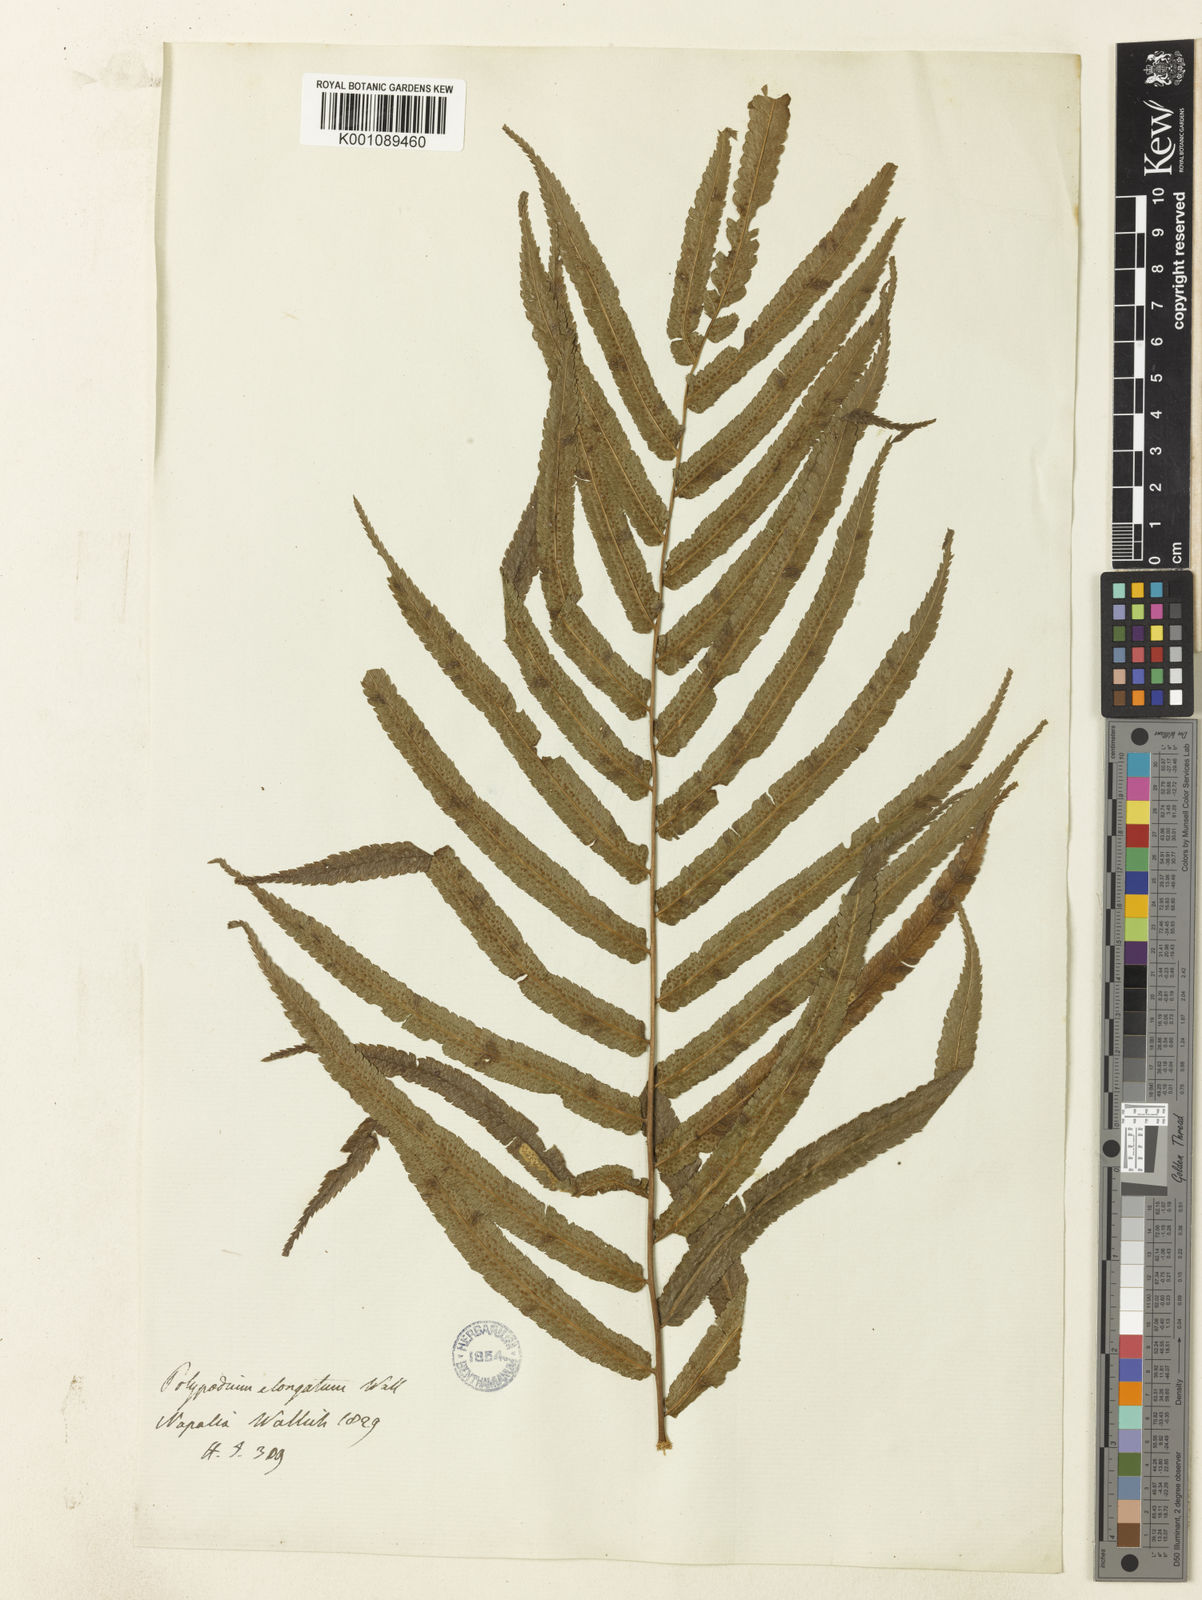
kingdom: Plantae
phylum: Tracheophyta
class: Polypodiopsida
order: Polypodiales
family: Athyriaceae
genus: Anisocampium
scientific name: Anisocampium cuspidatum
